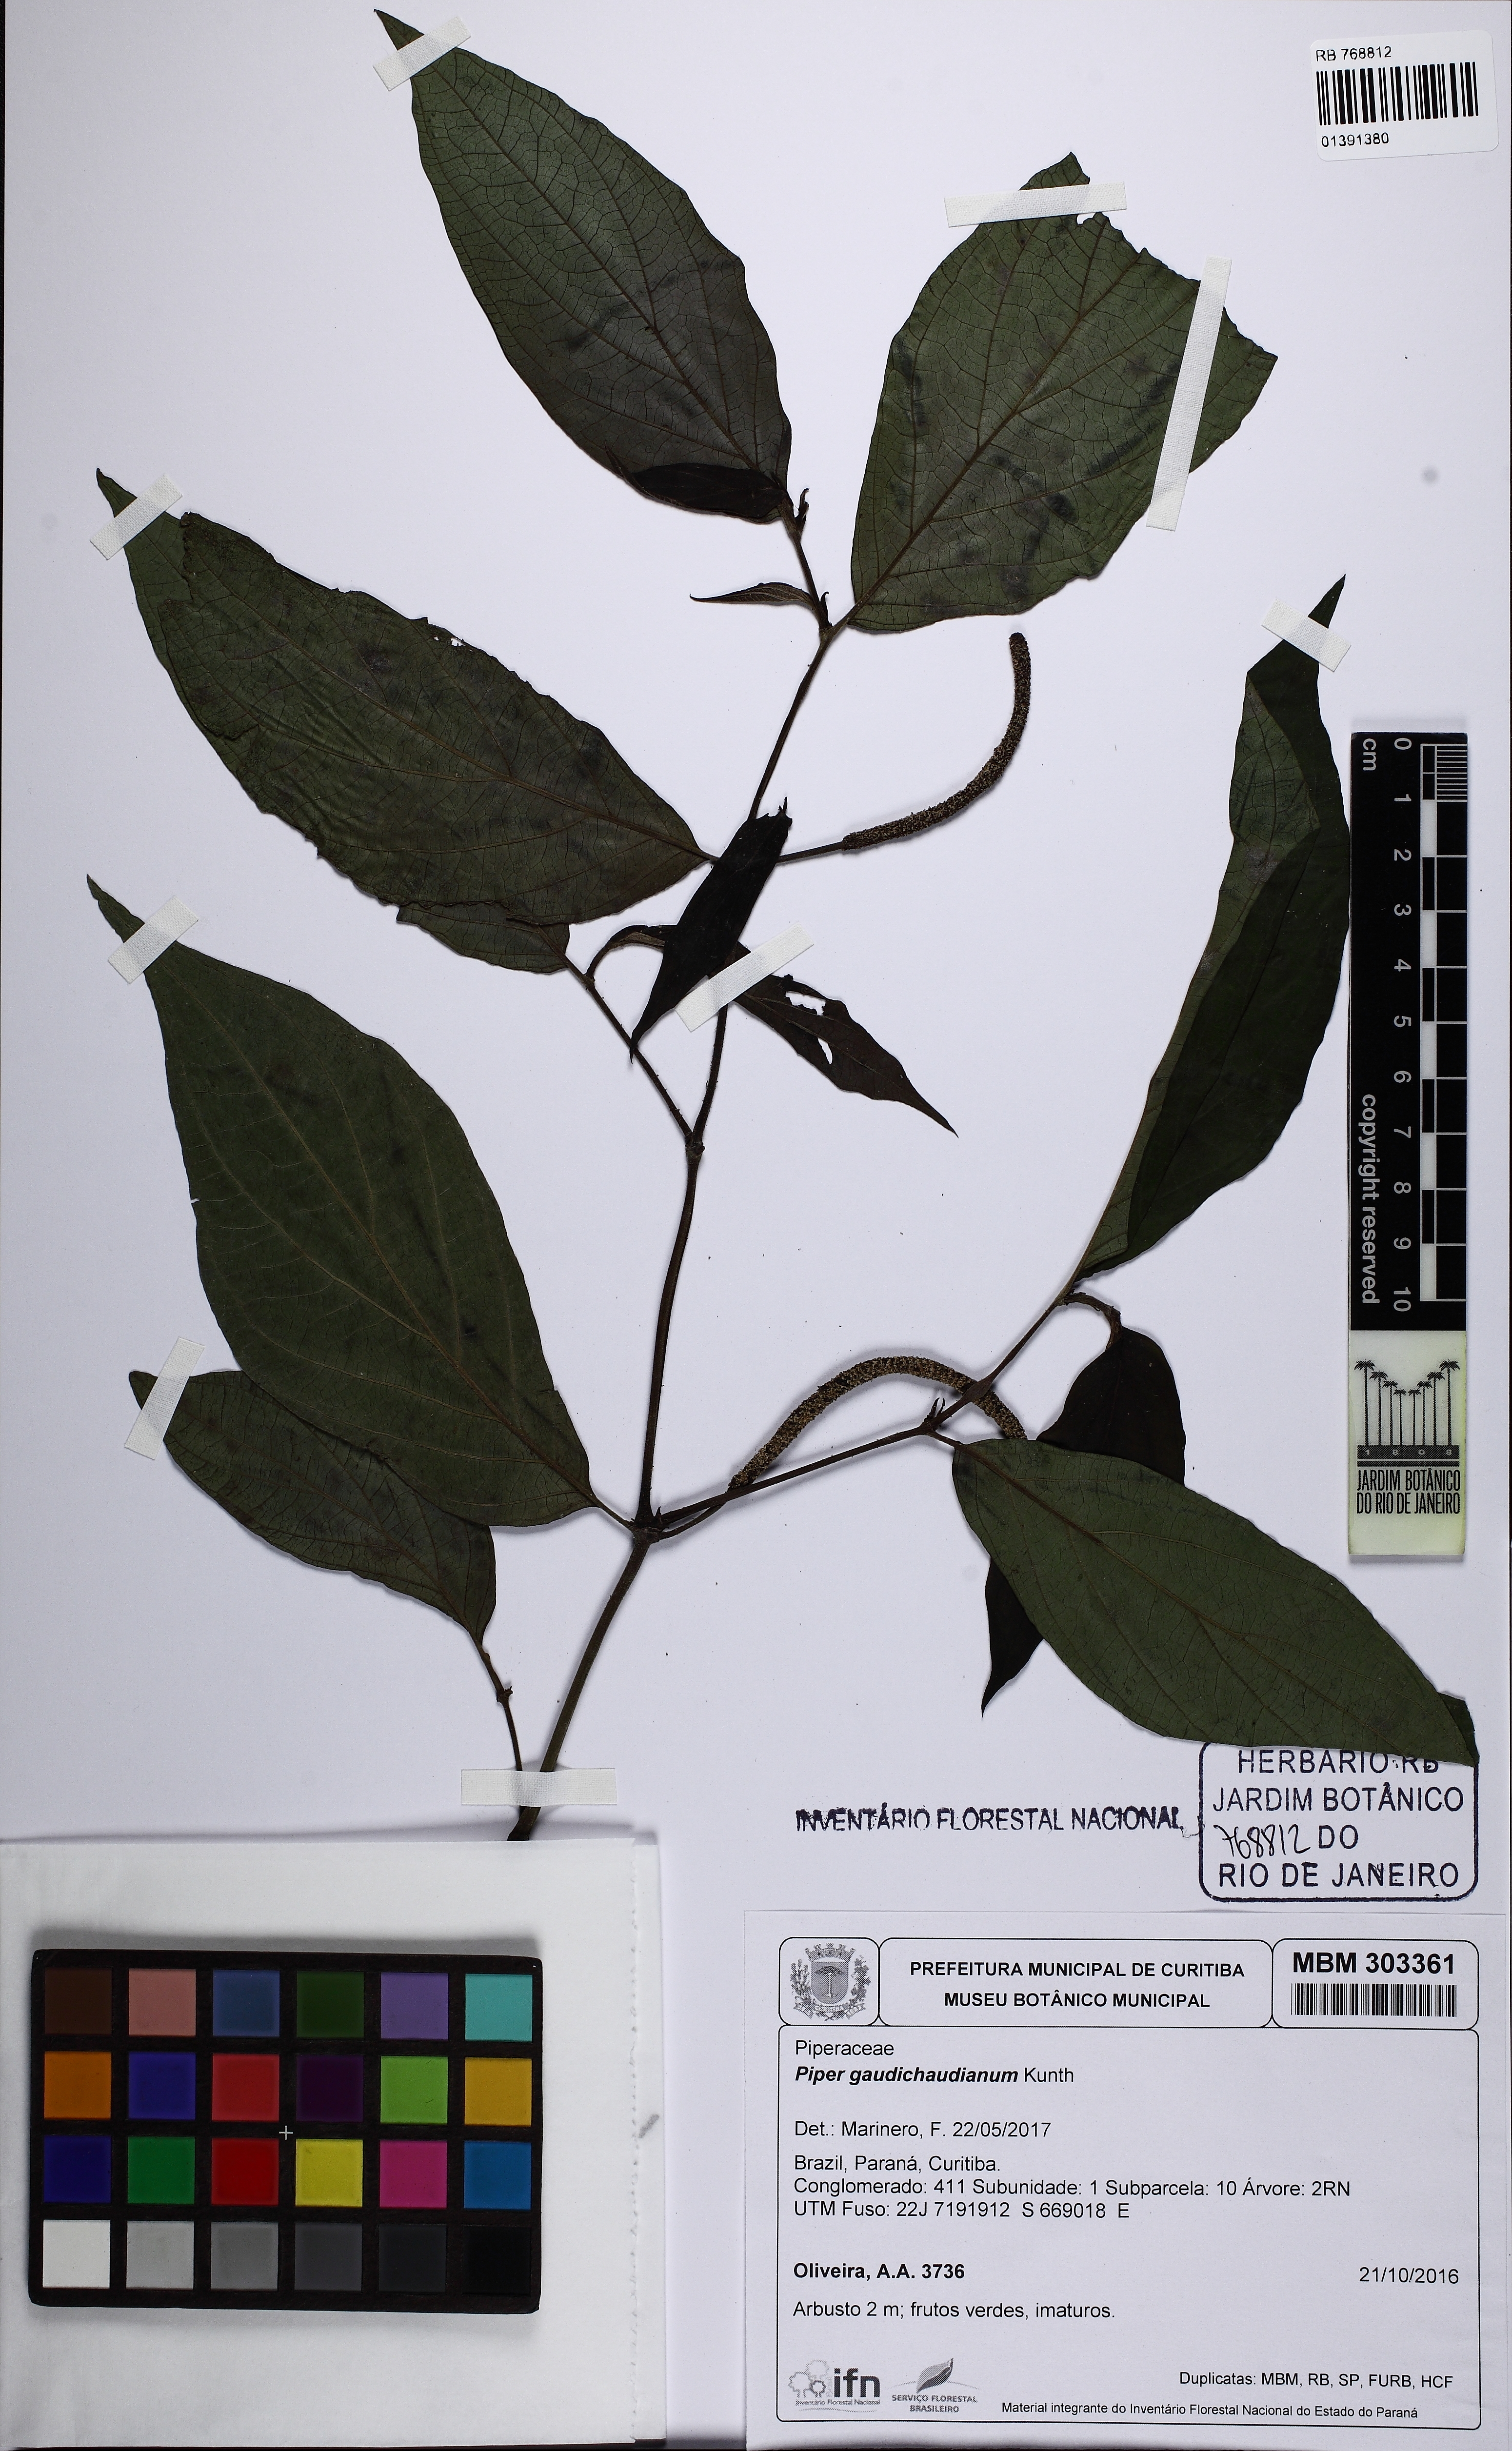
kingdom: Plantae
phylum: Tracheophyta
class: Magnoliopsida
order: Piperales
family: Piperaceae
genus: Piper
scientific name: Piper gaudichaudianum
